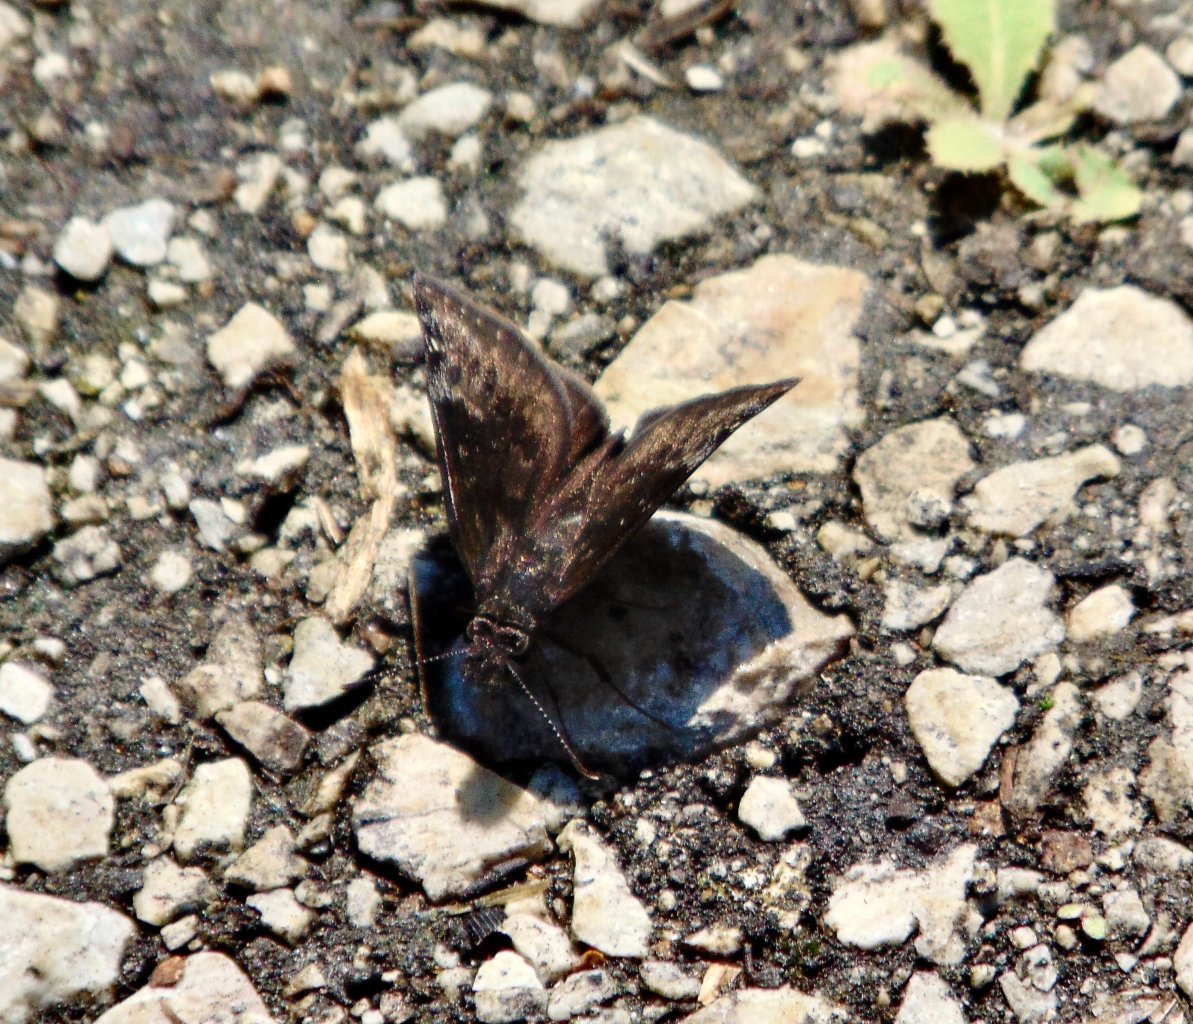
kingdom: Animalia
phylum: Arthropoda
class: Insecta
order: Lepidoptera
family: Hesperiidae
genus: Gesta
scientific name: Gesta
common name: Wild Indigo Duskywing
